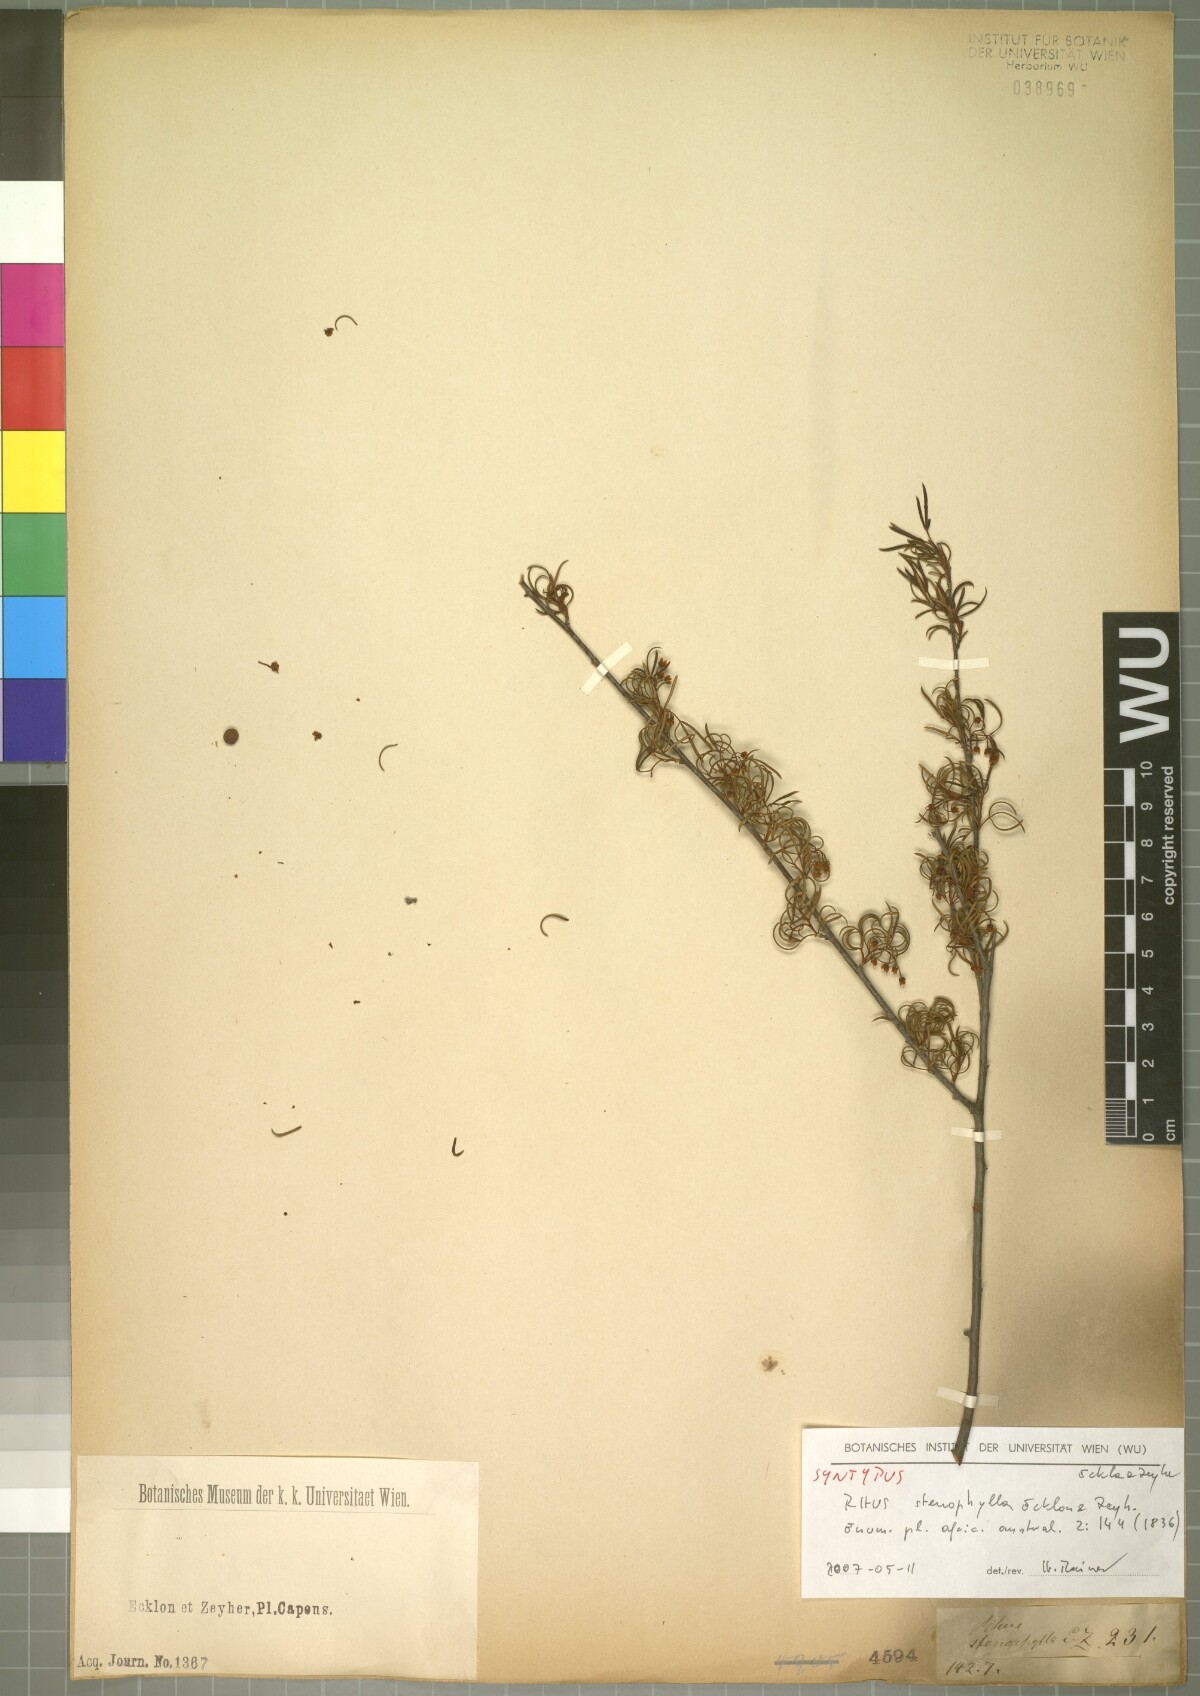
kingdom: Plantae
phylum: Tracheophyta
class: Magnoliopsida
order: Sapindales
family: Anacardiaceae
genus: Searsia
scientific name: Searsia stenophylla
